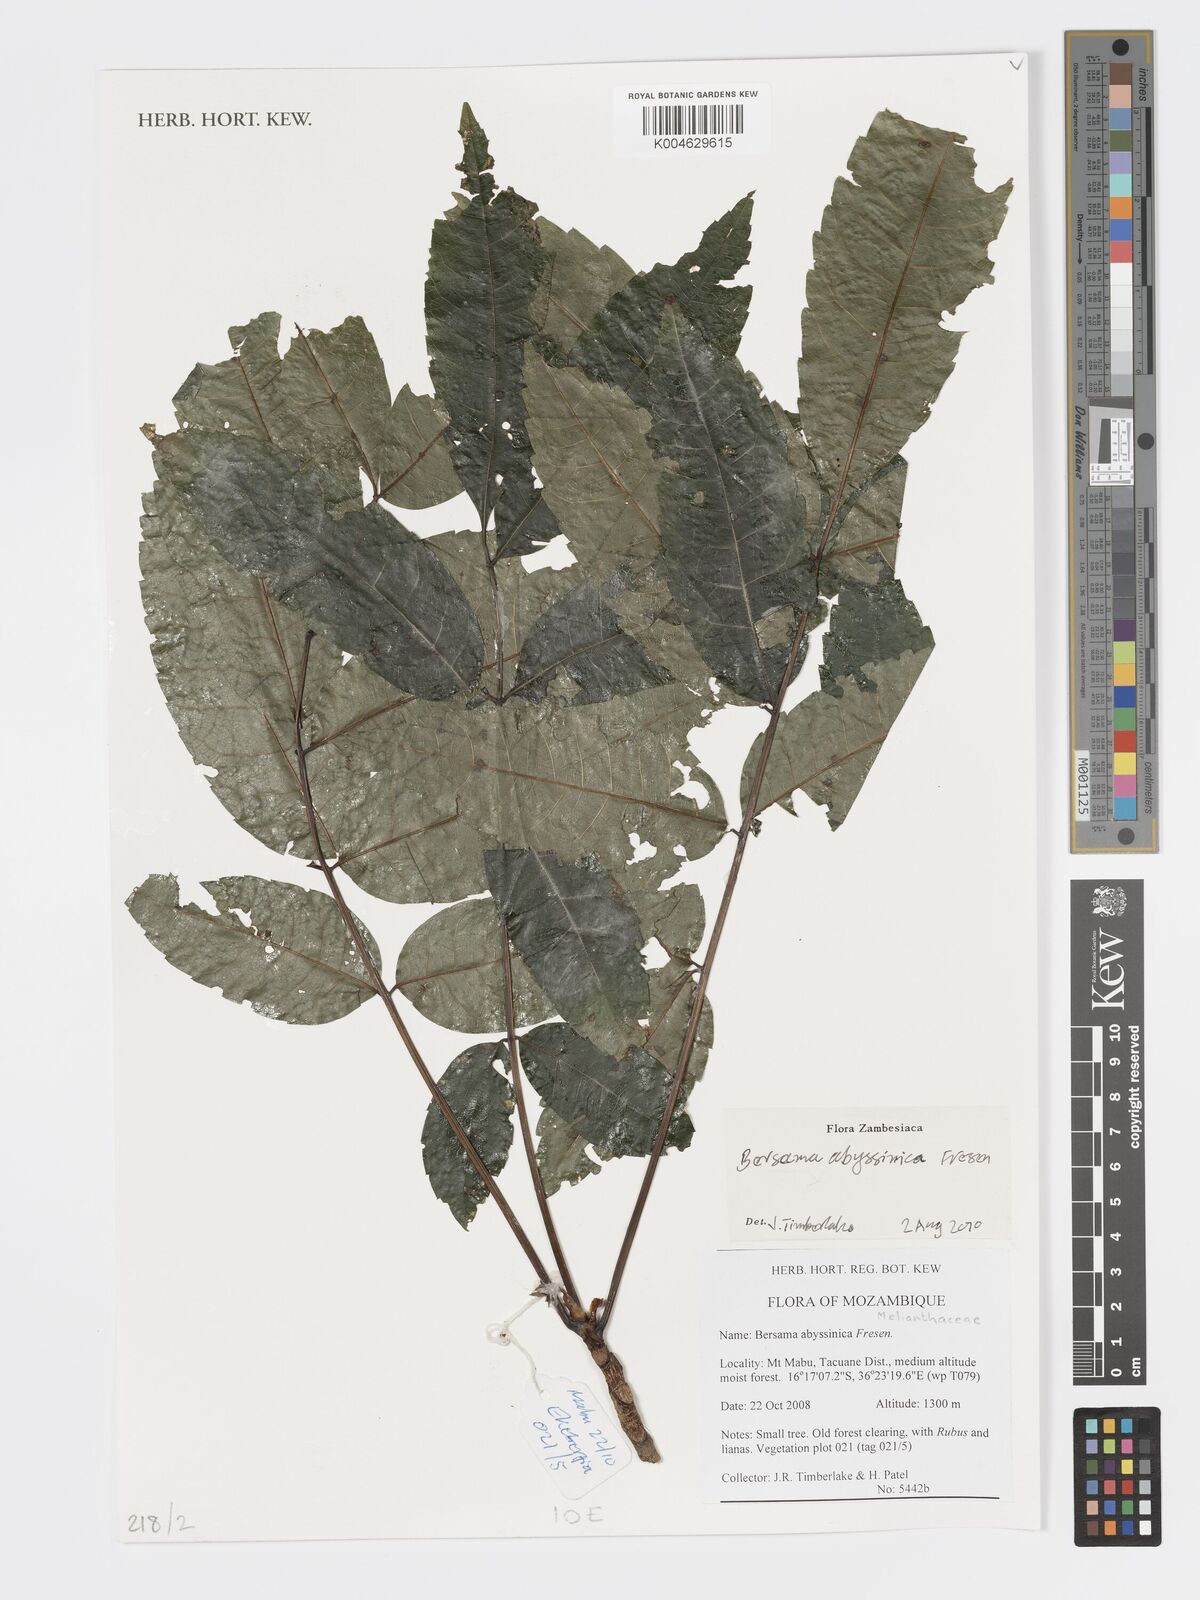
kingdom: Plantae
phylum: Tracheophyta
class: Magnoliopsida
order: Geraniales
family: Melianthaceae
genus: Bersama
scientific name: Bersama abyssinica
